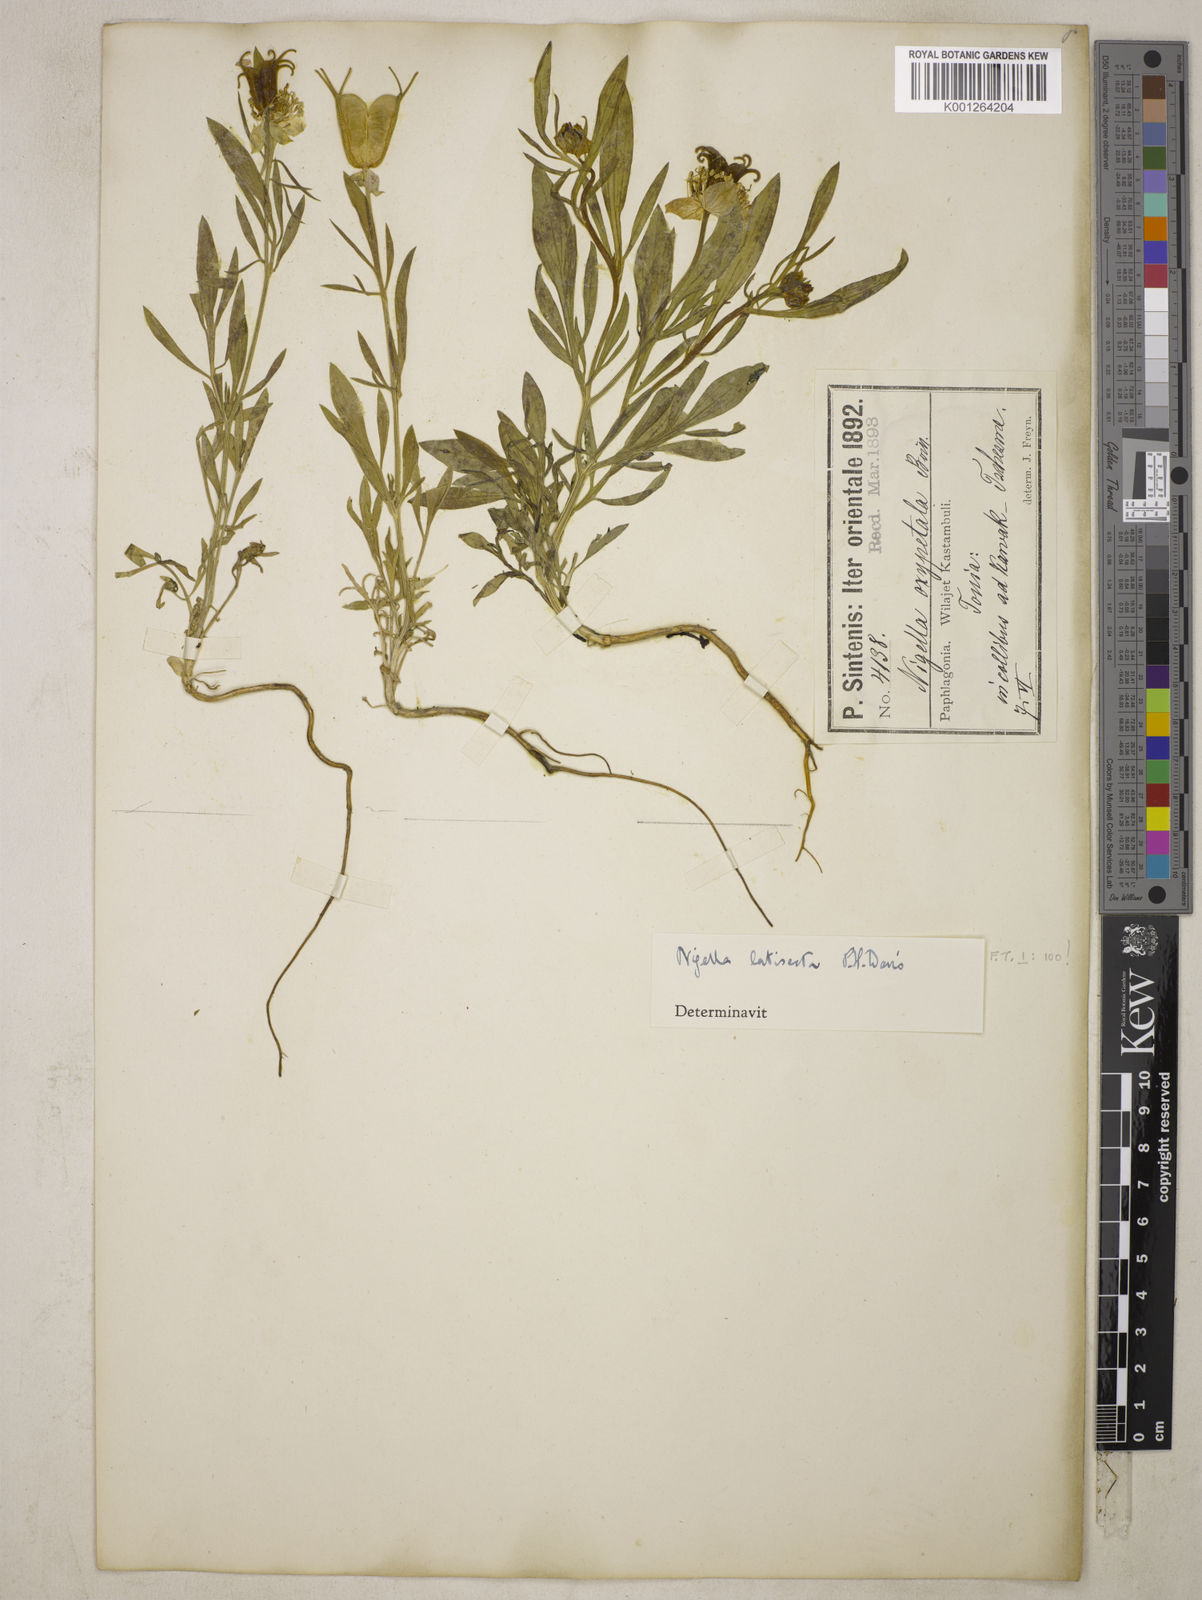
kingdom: Plantae
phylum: Tracheophyta
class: Magnoliopsida
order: Ranunculales
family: Ranunculaceae
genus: Nigella
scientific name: Nigella oxypetala
